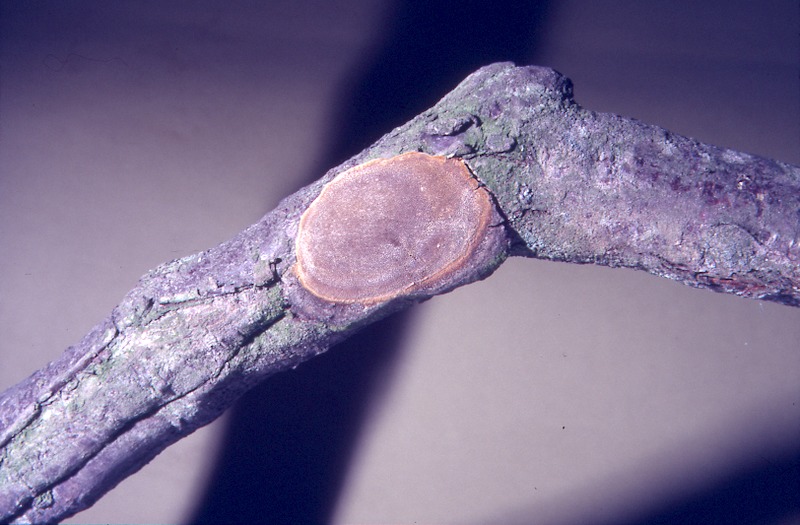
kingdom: Plantae
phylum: Tracheophyta
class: Magnoliopsida
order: Fagales
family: Betulaceae
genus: Corylus
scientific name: Corylus avellana
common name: European hazel
